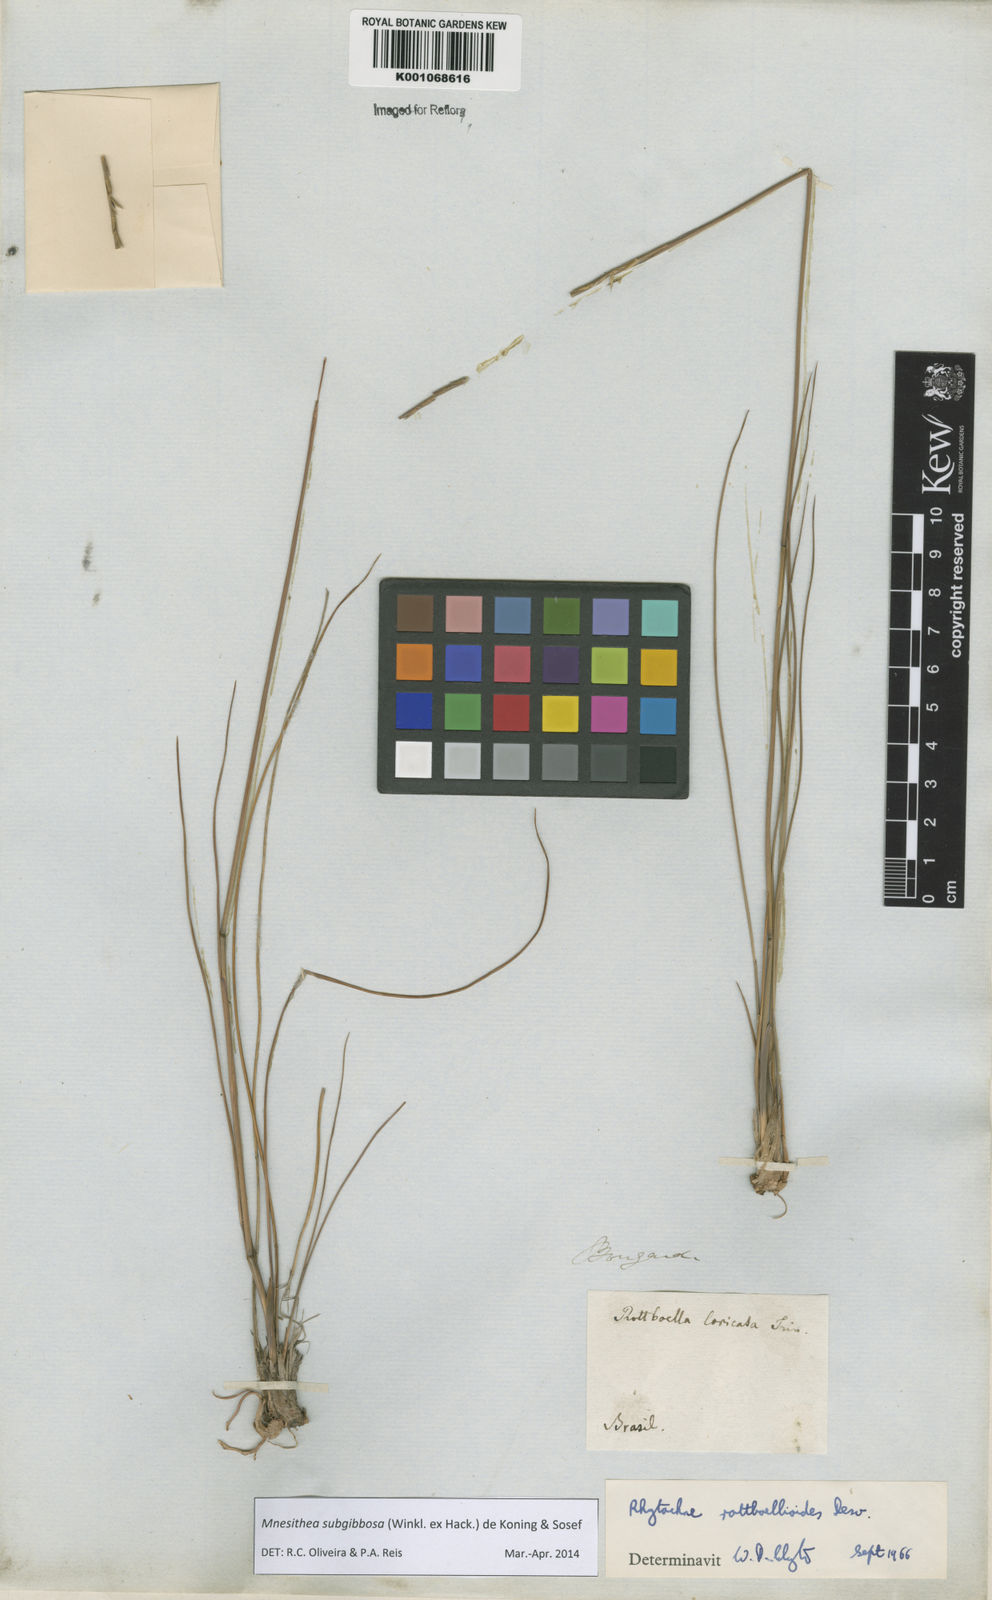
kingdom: Plantae
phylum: Tracheophyta
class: Liliopsida
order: Poales
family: Poaceae
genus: Rhytachne
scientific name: Rhytachne subgibbosa
